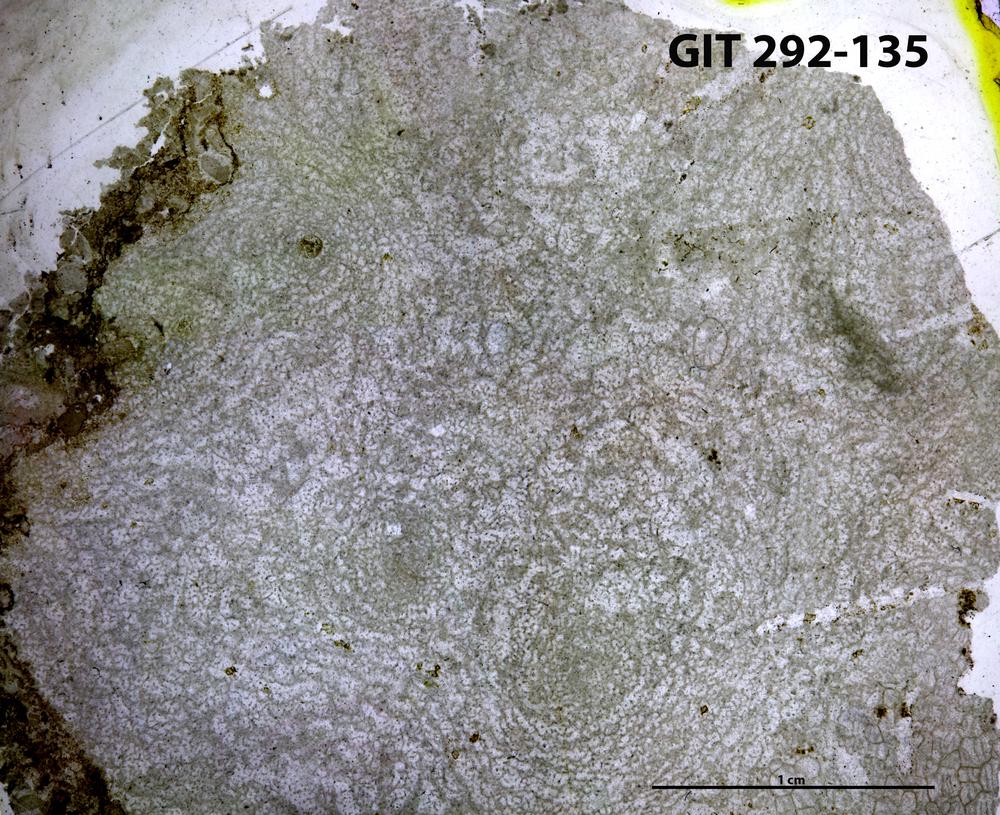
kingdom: Animalia
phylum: Porifera
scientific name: Porifera
